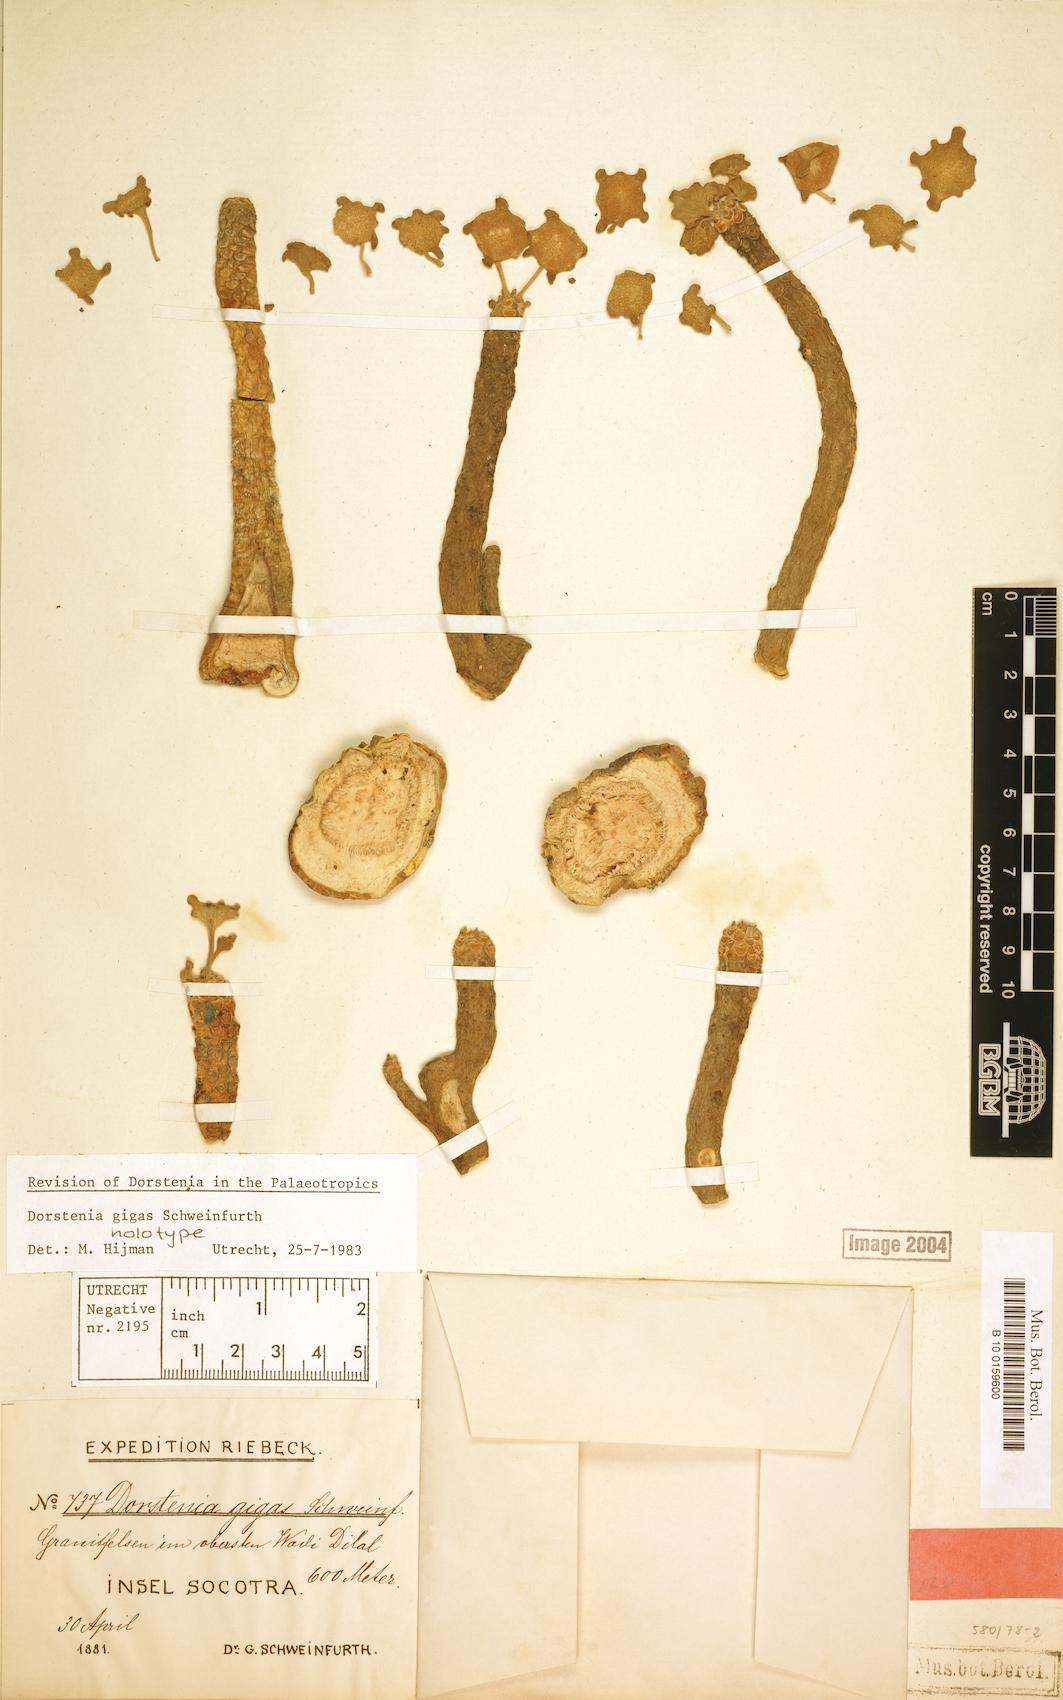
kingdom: Plantae
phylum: Tracheophyta
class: Magnoliopsida
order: Rosales
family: Moraceae
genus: Dorstenia
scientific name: Dorstenia gigas
